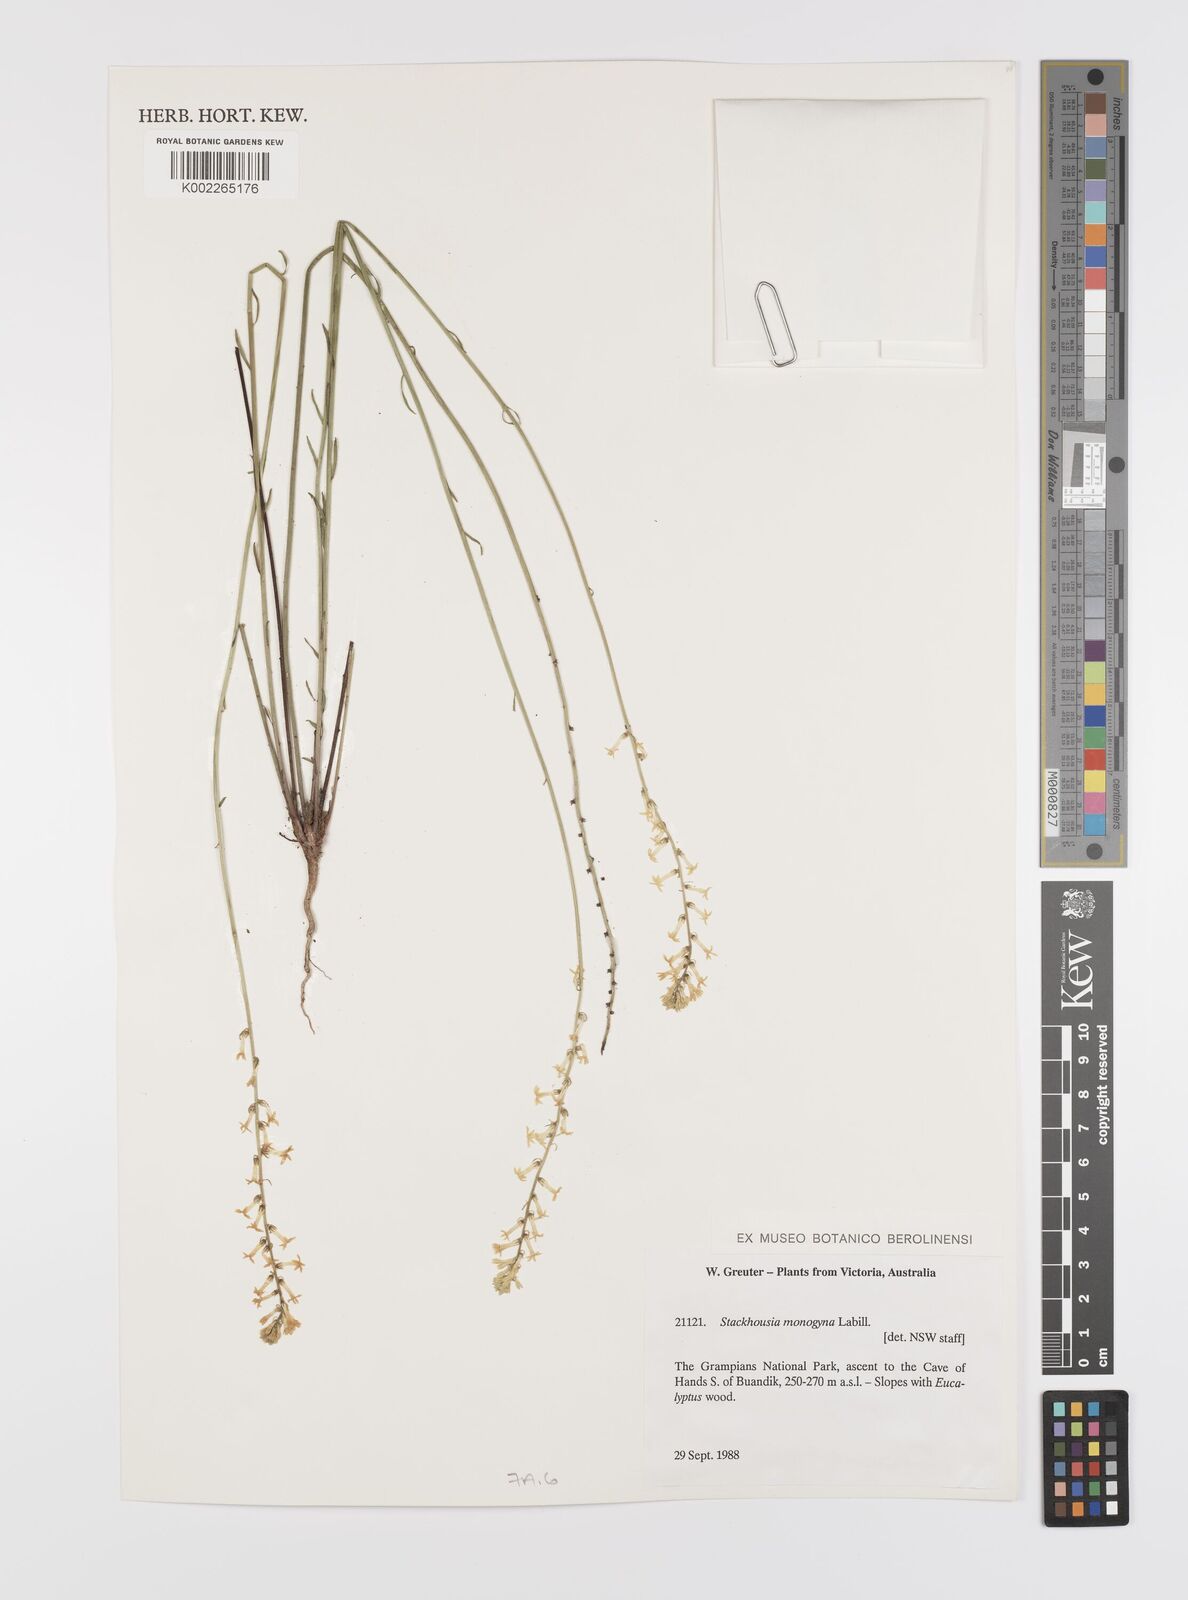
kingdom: Plantae
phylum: Tracheophyta
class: Magnoliopsida
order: Celastrales
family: Celastraceae
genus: Stackhousia
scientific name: Stackhousia monogyna
